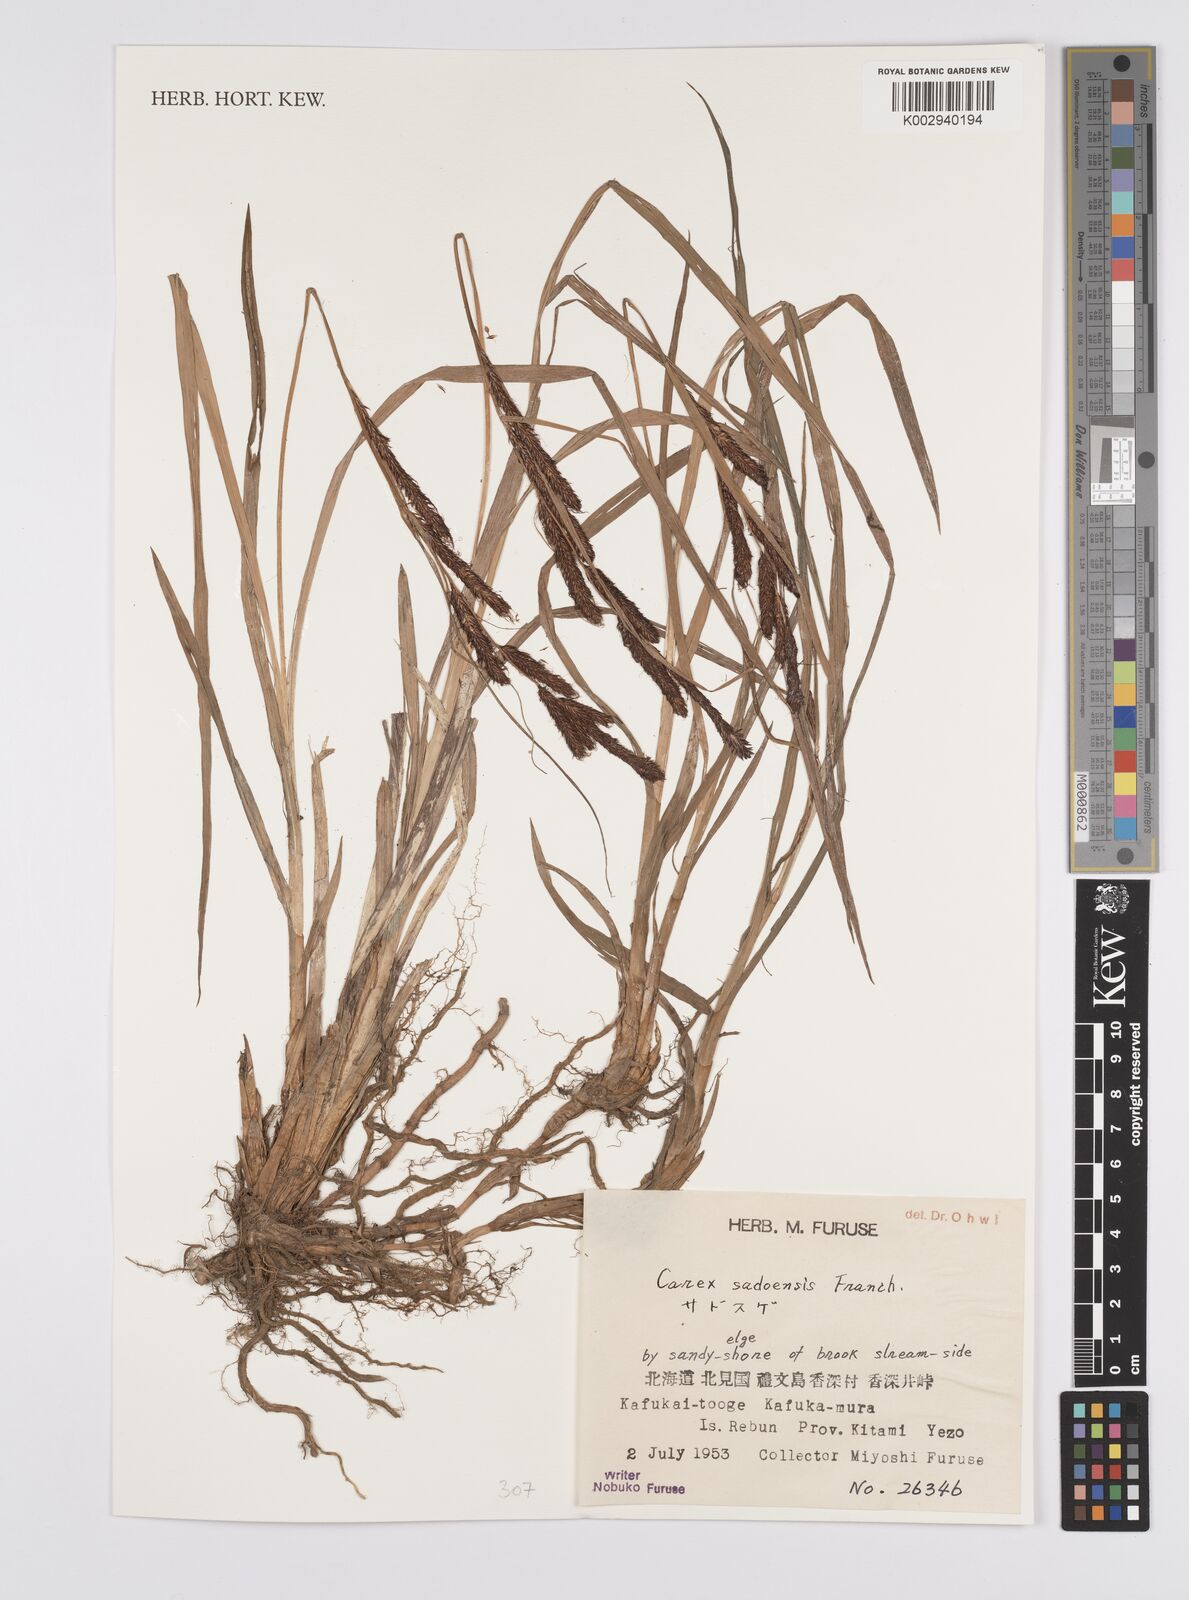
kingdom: Plantae
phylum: Tracheophyta
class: Liliopsida
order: Poales
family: Cyperaceae
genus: Carex
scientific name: Carex sadoensis
